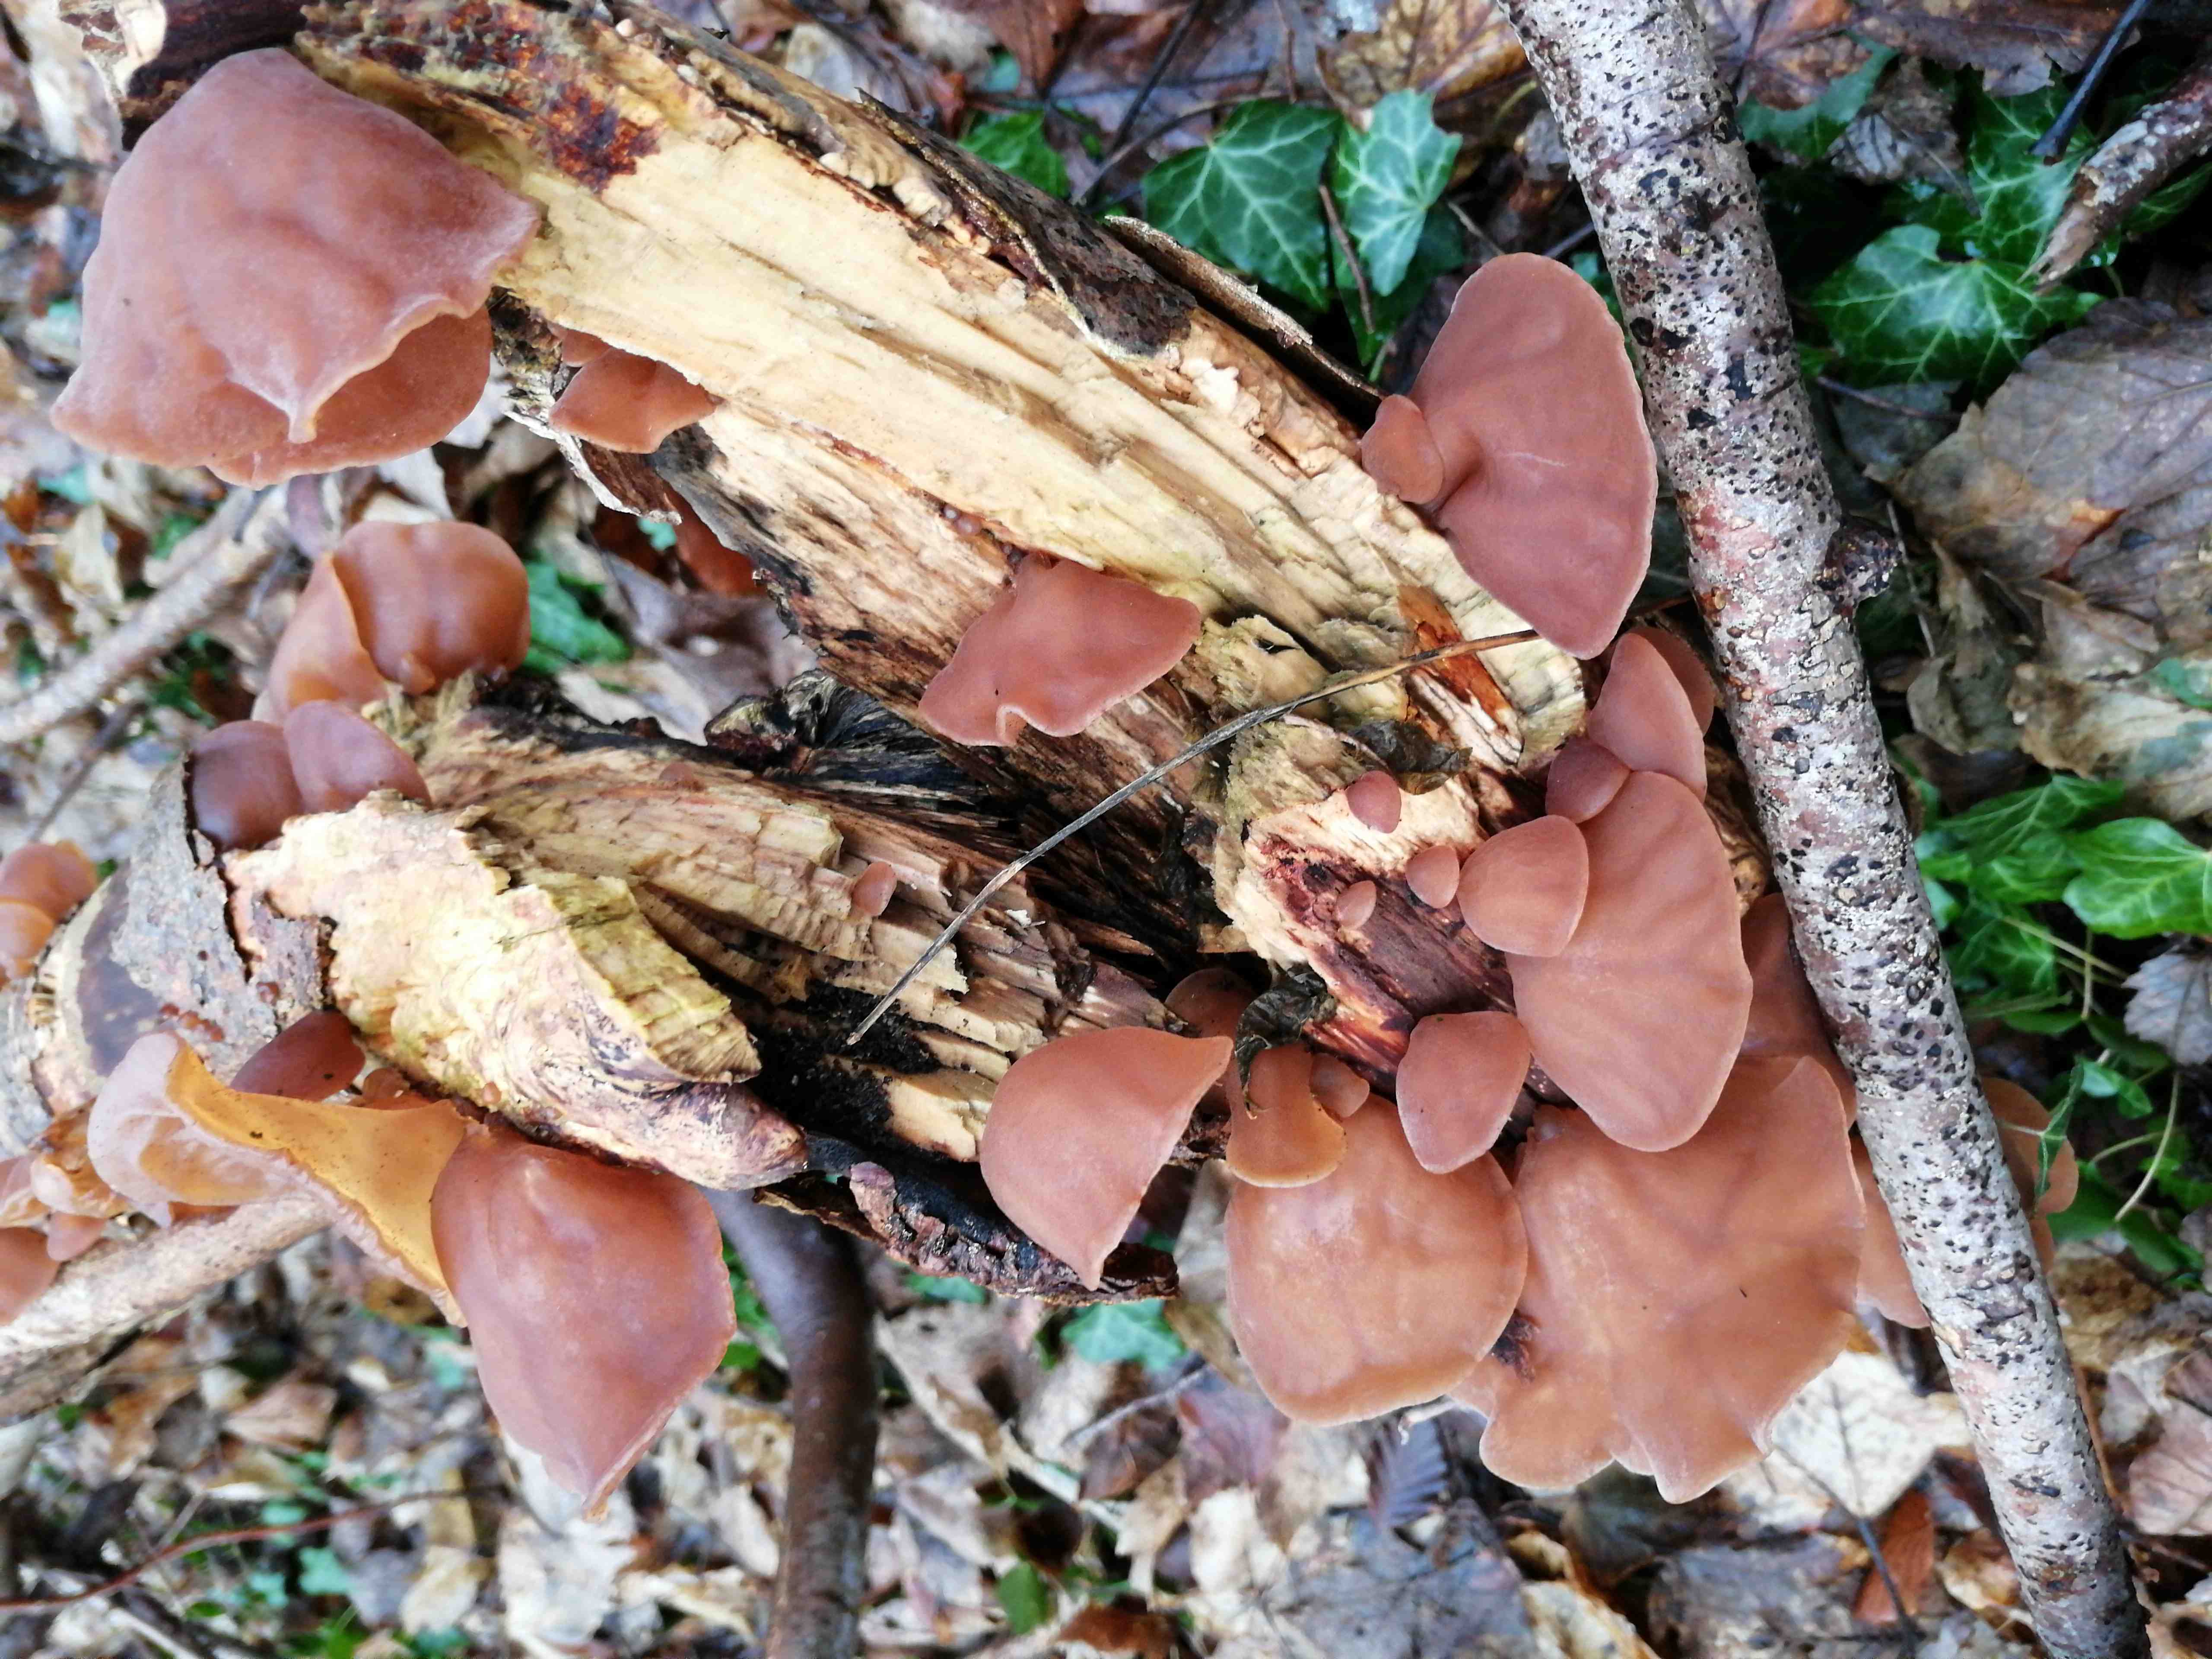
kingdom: Fungi
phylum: Basidiomycota
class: Agaricomycetes
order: Auriculariales
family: Auriculariaceae
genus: Auricularia
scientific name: Auricularia auricula-judae
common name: almindelig judasøre
